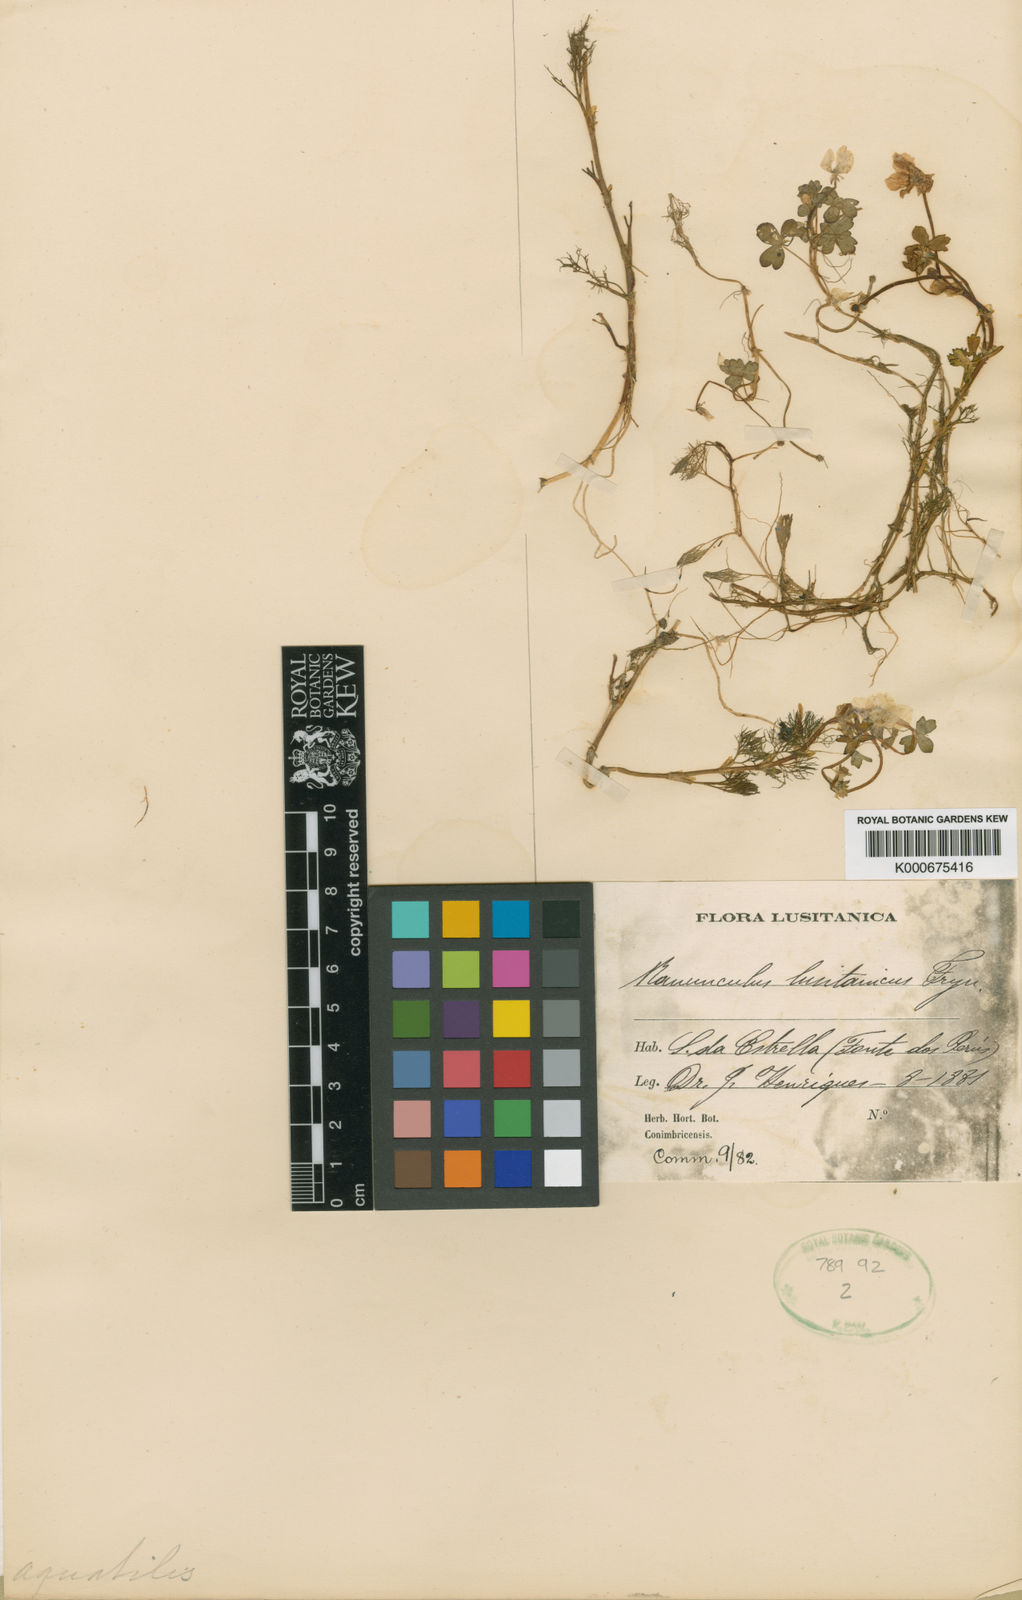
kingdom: Plantae
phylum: Tracheophyta
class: Magnoliopsida
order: Ranunculales
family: Ranunculaceae
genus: Ranunculus
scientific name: Ranunculus ololeucos
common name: White-flowered buttercup
